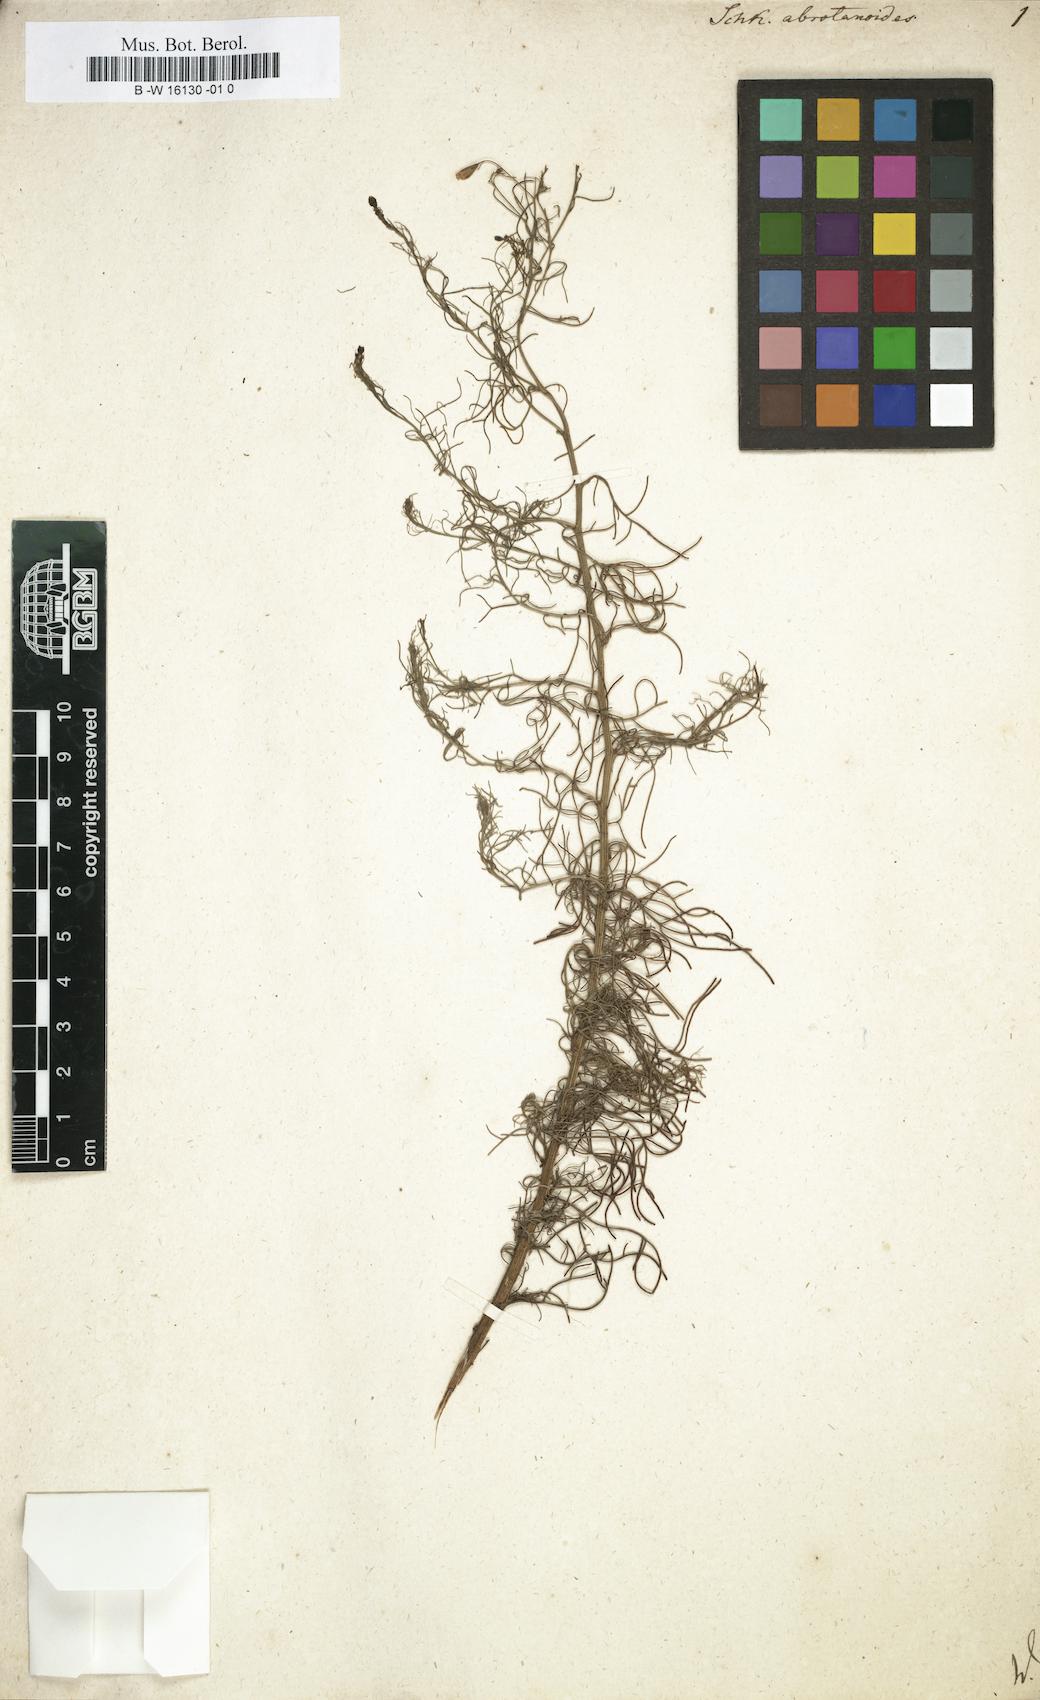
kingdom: Plantae
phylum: Tracheophyta
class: Magnoliopsida
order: Asterales
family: Asteraceae
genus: Schkuhria
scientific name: Schkuhria pinnata
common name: Dwarf marigold
